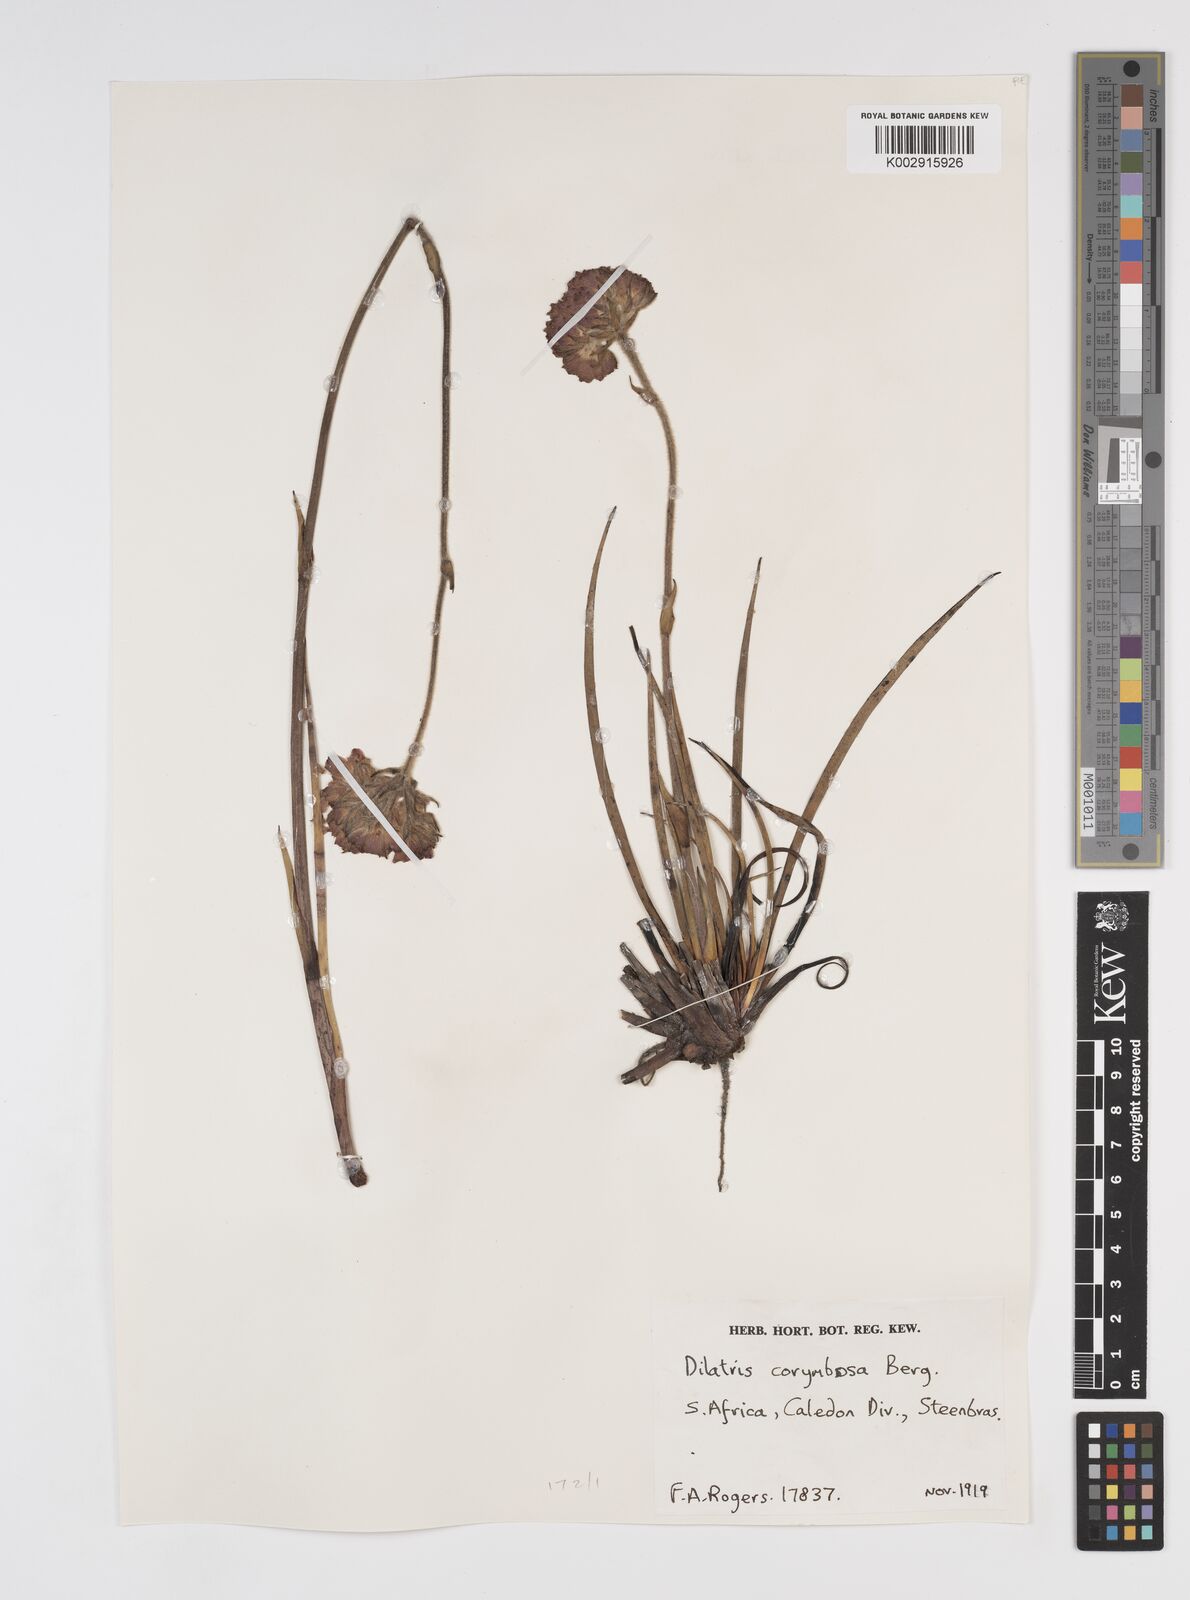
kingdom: Plantae
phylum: Tracheophyta
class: Liliopsida
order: Commelinales
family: Haemodoraceae
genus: Dilatris
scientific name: Dilatris corymbosa
